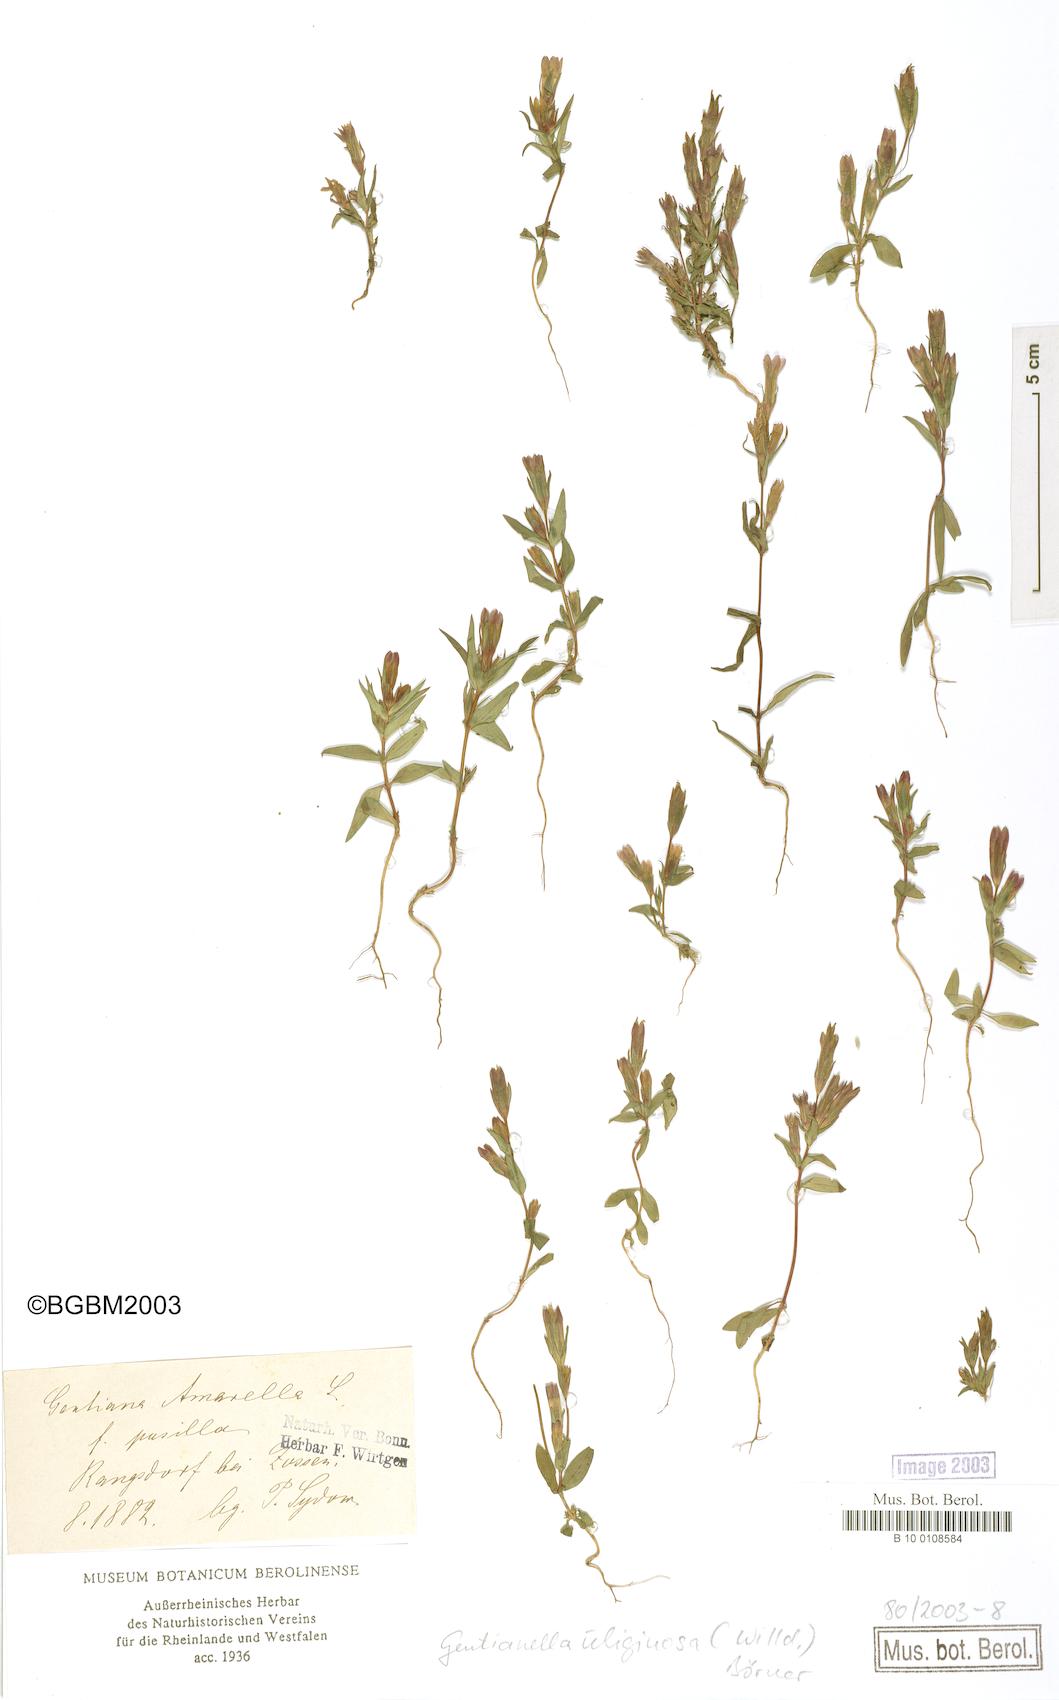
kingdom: Plantae
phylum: Tracheophyta
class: Magnoliopsida
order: Gentianales
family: Gentianaceae
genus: Gentianella
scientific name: Gentianella uliginosa
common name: Dune gentian
